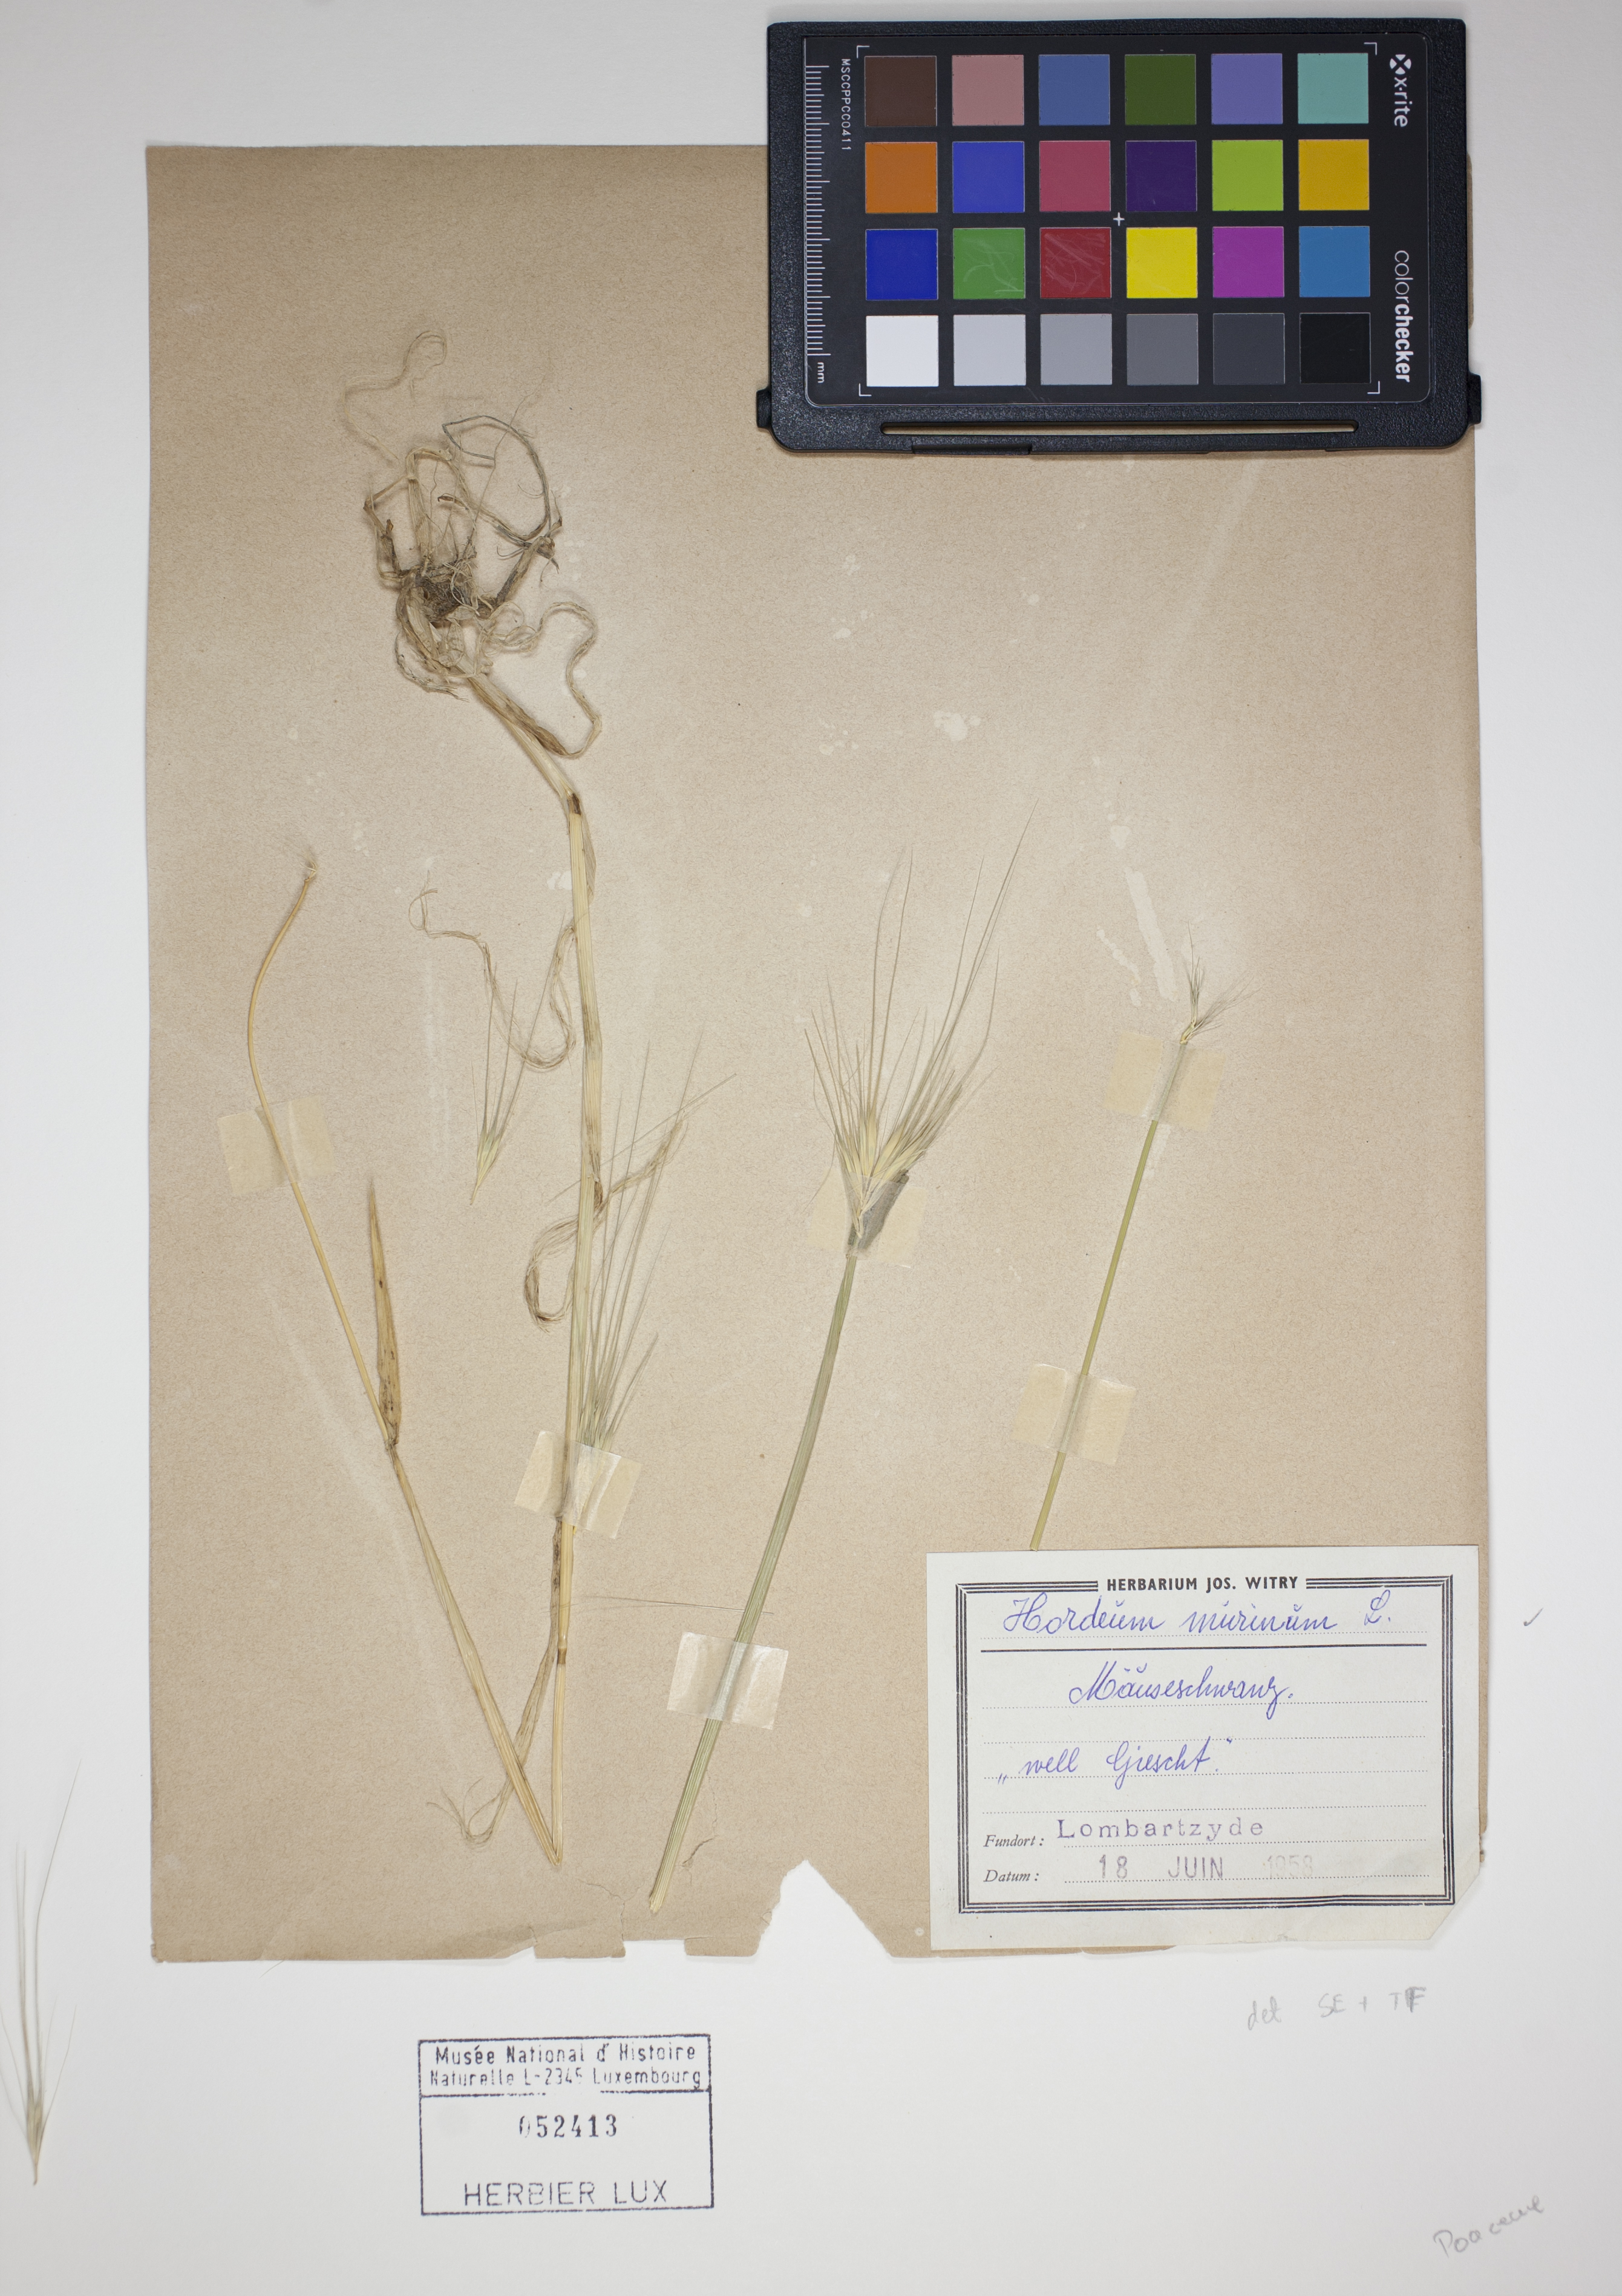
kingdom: Plantae
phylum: Tracheophyta
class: Liliopsida
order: Poales
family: Poaceae
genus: Hordeum
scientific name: Hordeum murinum
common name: Wall barley
